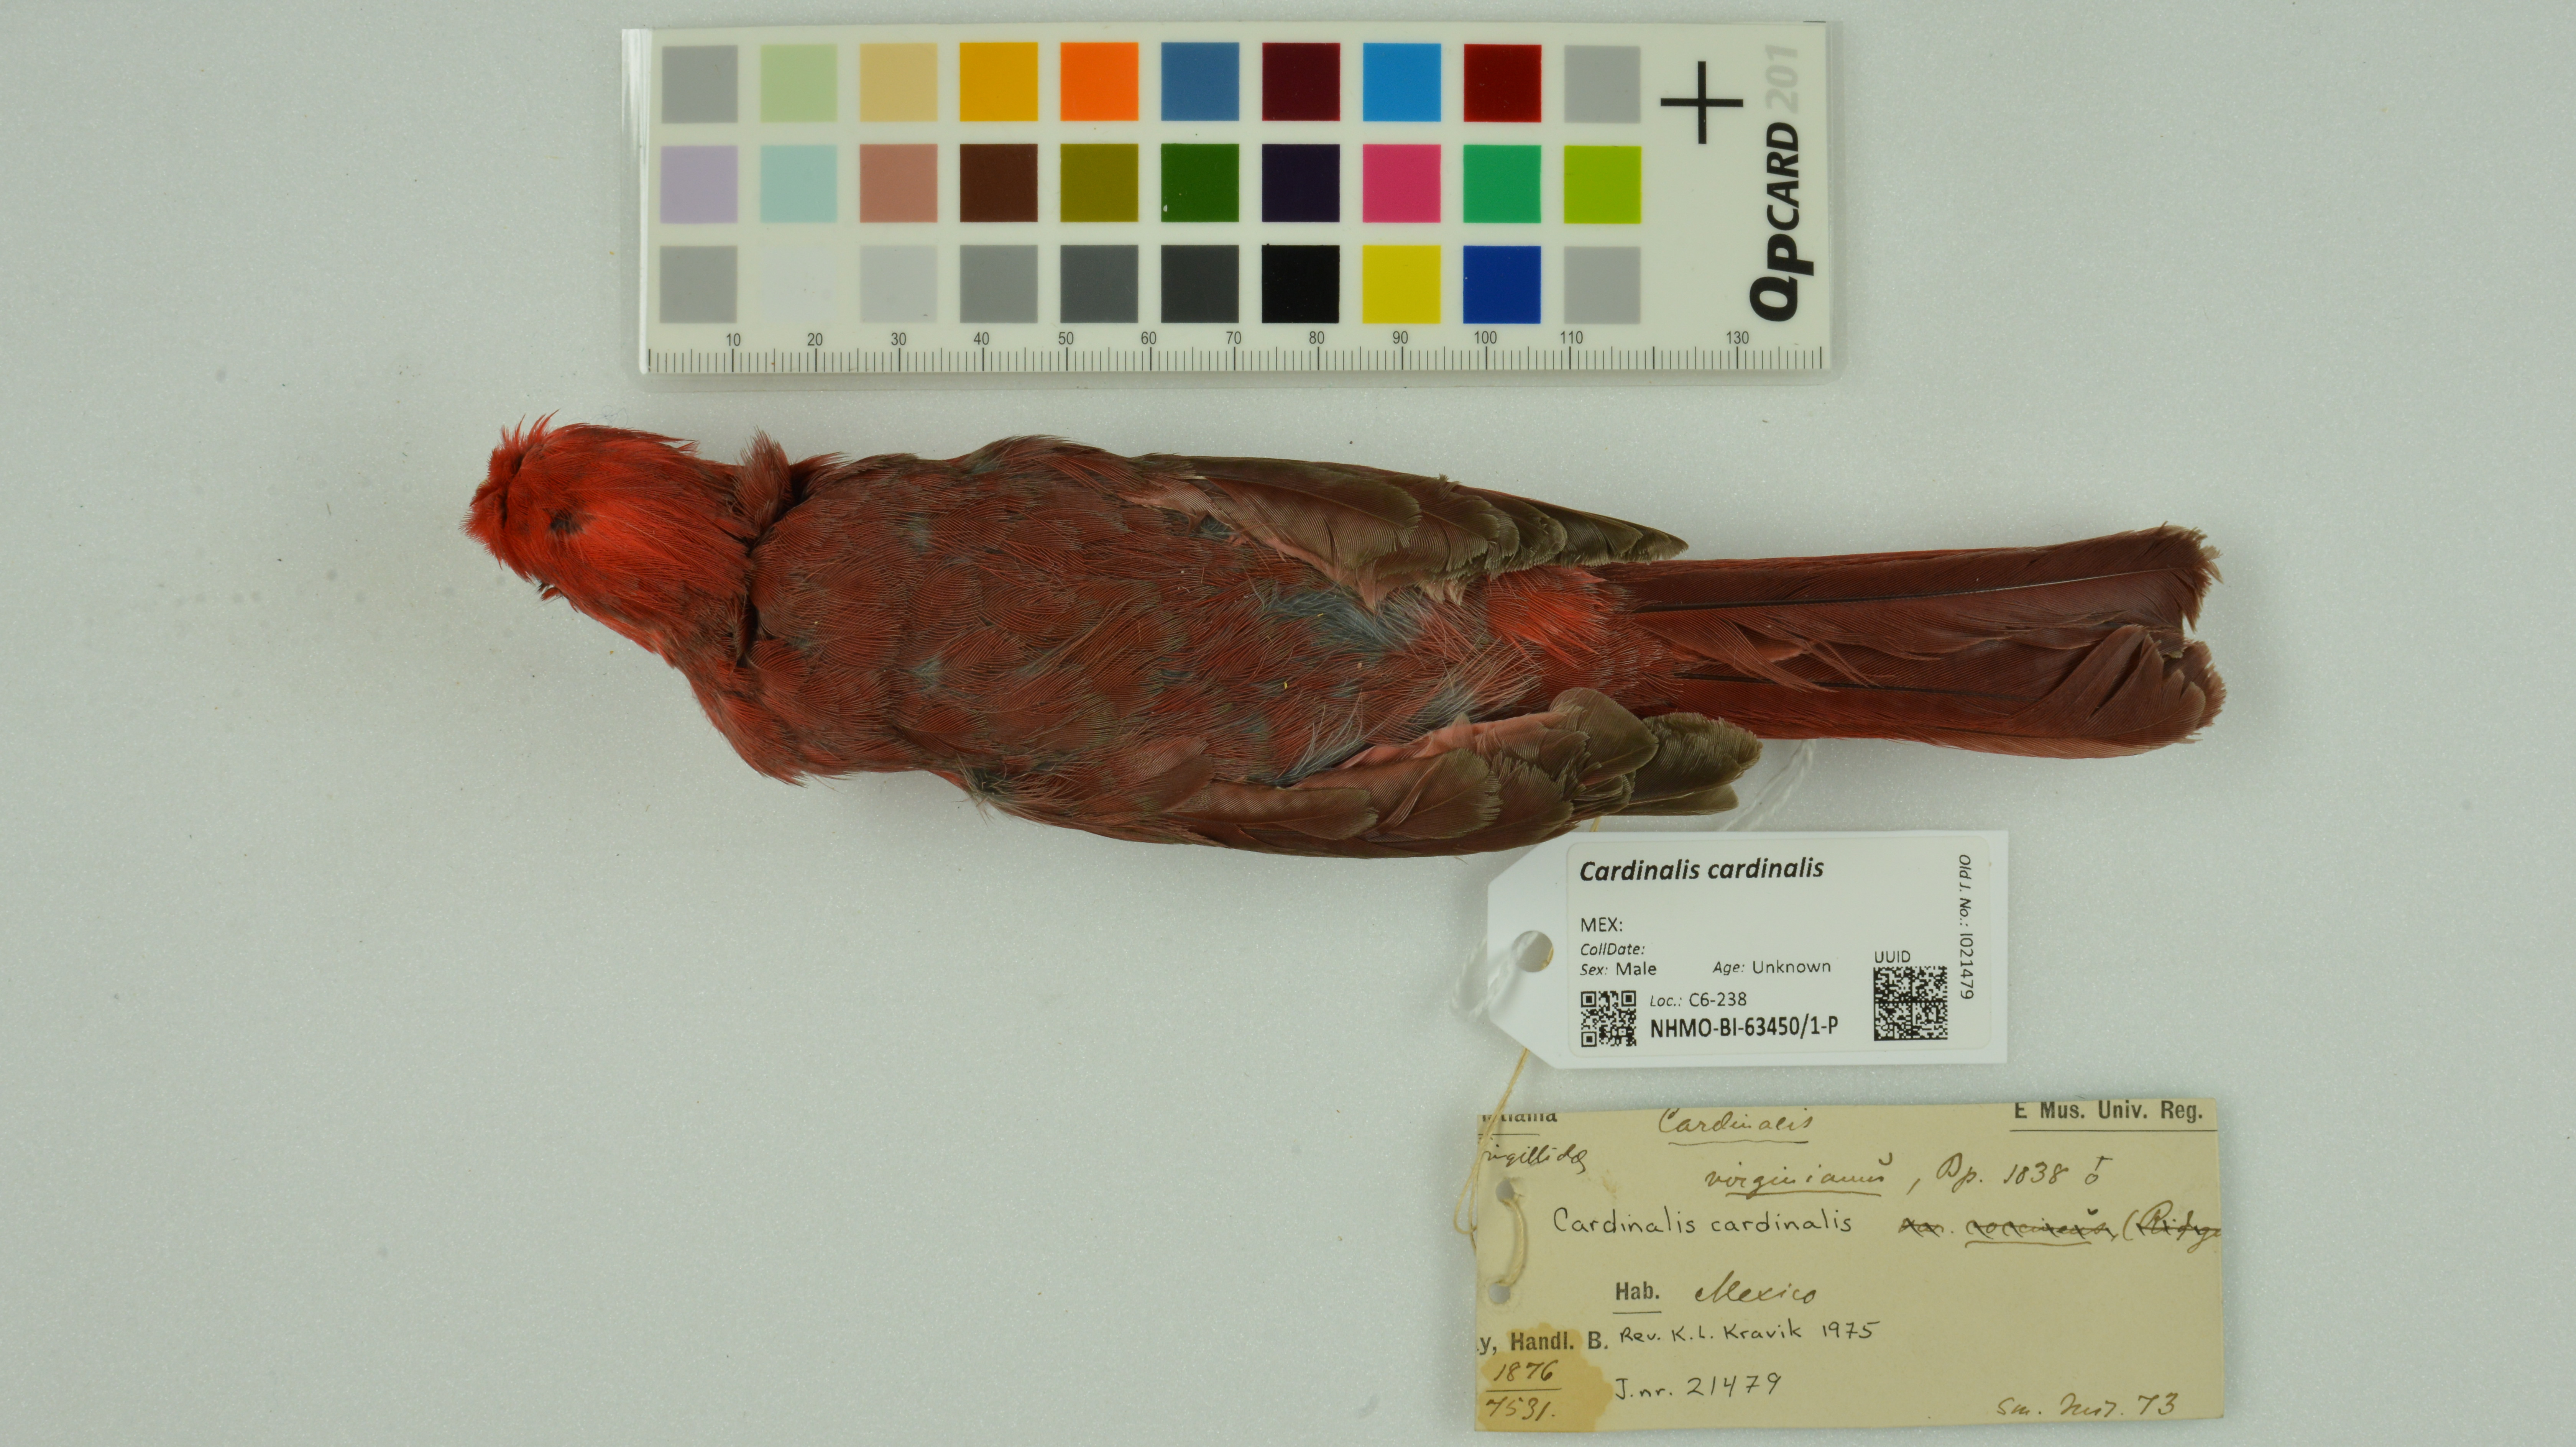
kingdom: Animalia
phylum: Chordata
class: Aves
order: Passeriformes
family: Cardinalidae
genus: Cardinalis
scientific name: Cardinalis cardinalis
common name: Northern cardinal
